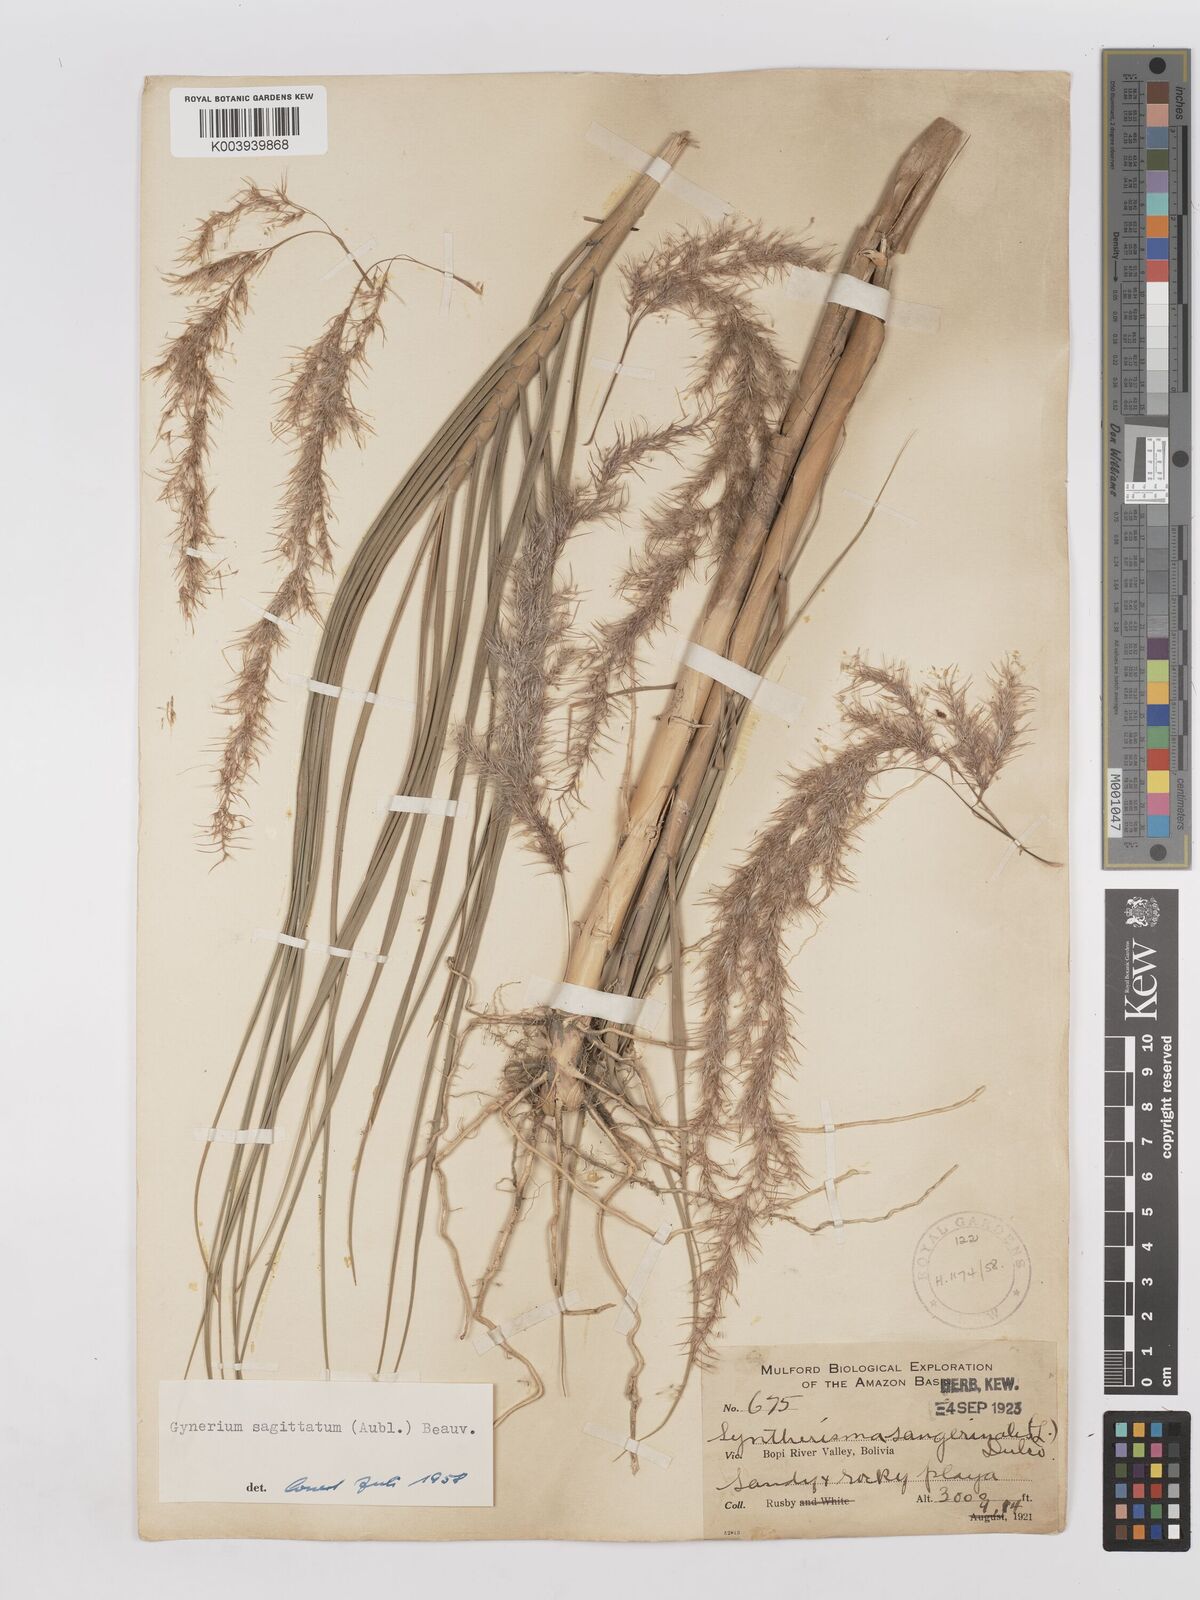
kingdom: Plantae
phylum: Tracheophyta
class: Liliopsida
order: Poales
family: Poaceae
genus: Gynerium
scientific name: Gynerium sagittatum
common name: Wild cane
